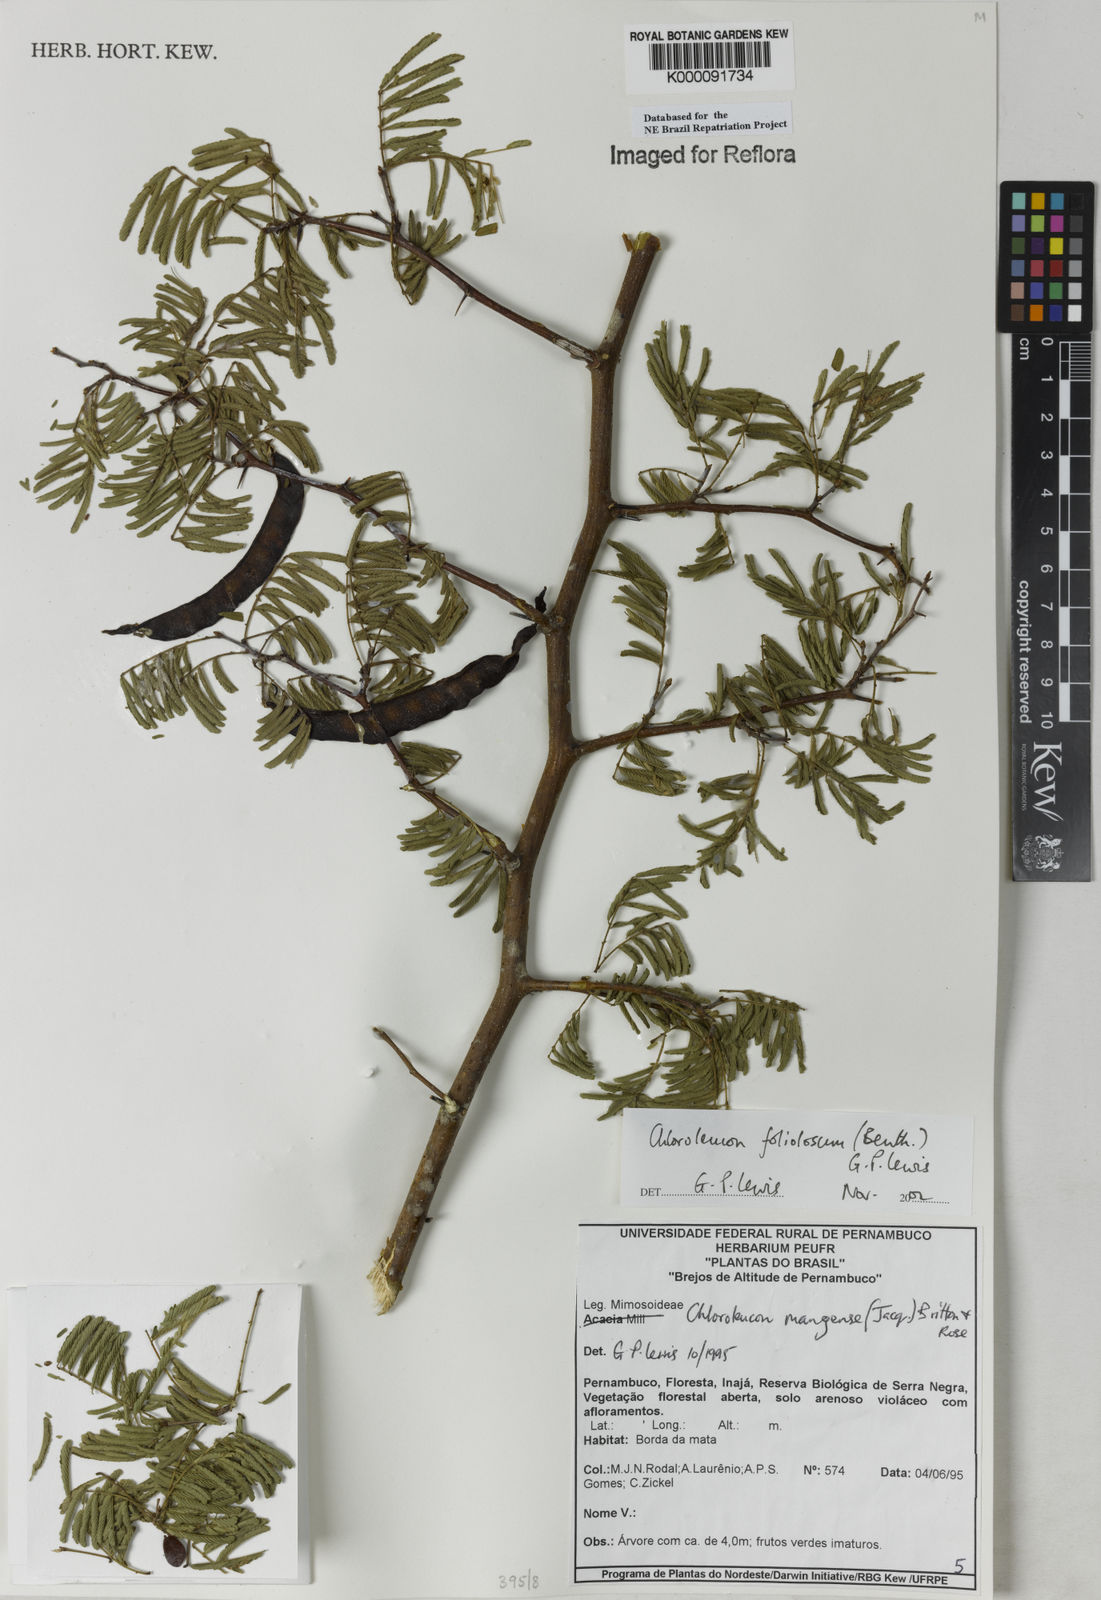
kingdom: Plantae
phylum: Tracheophyta
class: Magnoliopsida
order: Fabales
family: Fabaceae
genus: Chloroleucon
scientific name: Chloroleucon foliolosum
